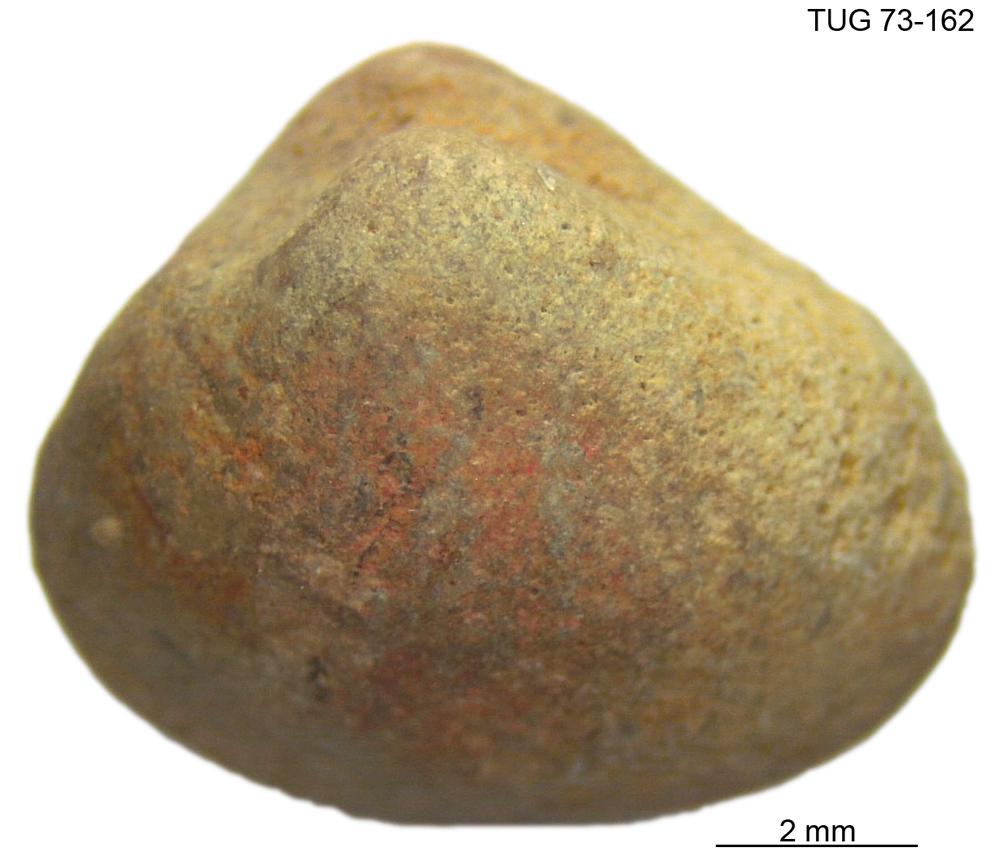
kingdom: Animalia
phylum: Mollusca
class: Bivalvia
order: Solemyida
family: Ctenodontidae
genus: Tancrediopsis
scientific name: Tancrediopsis
